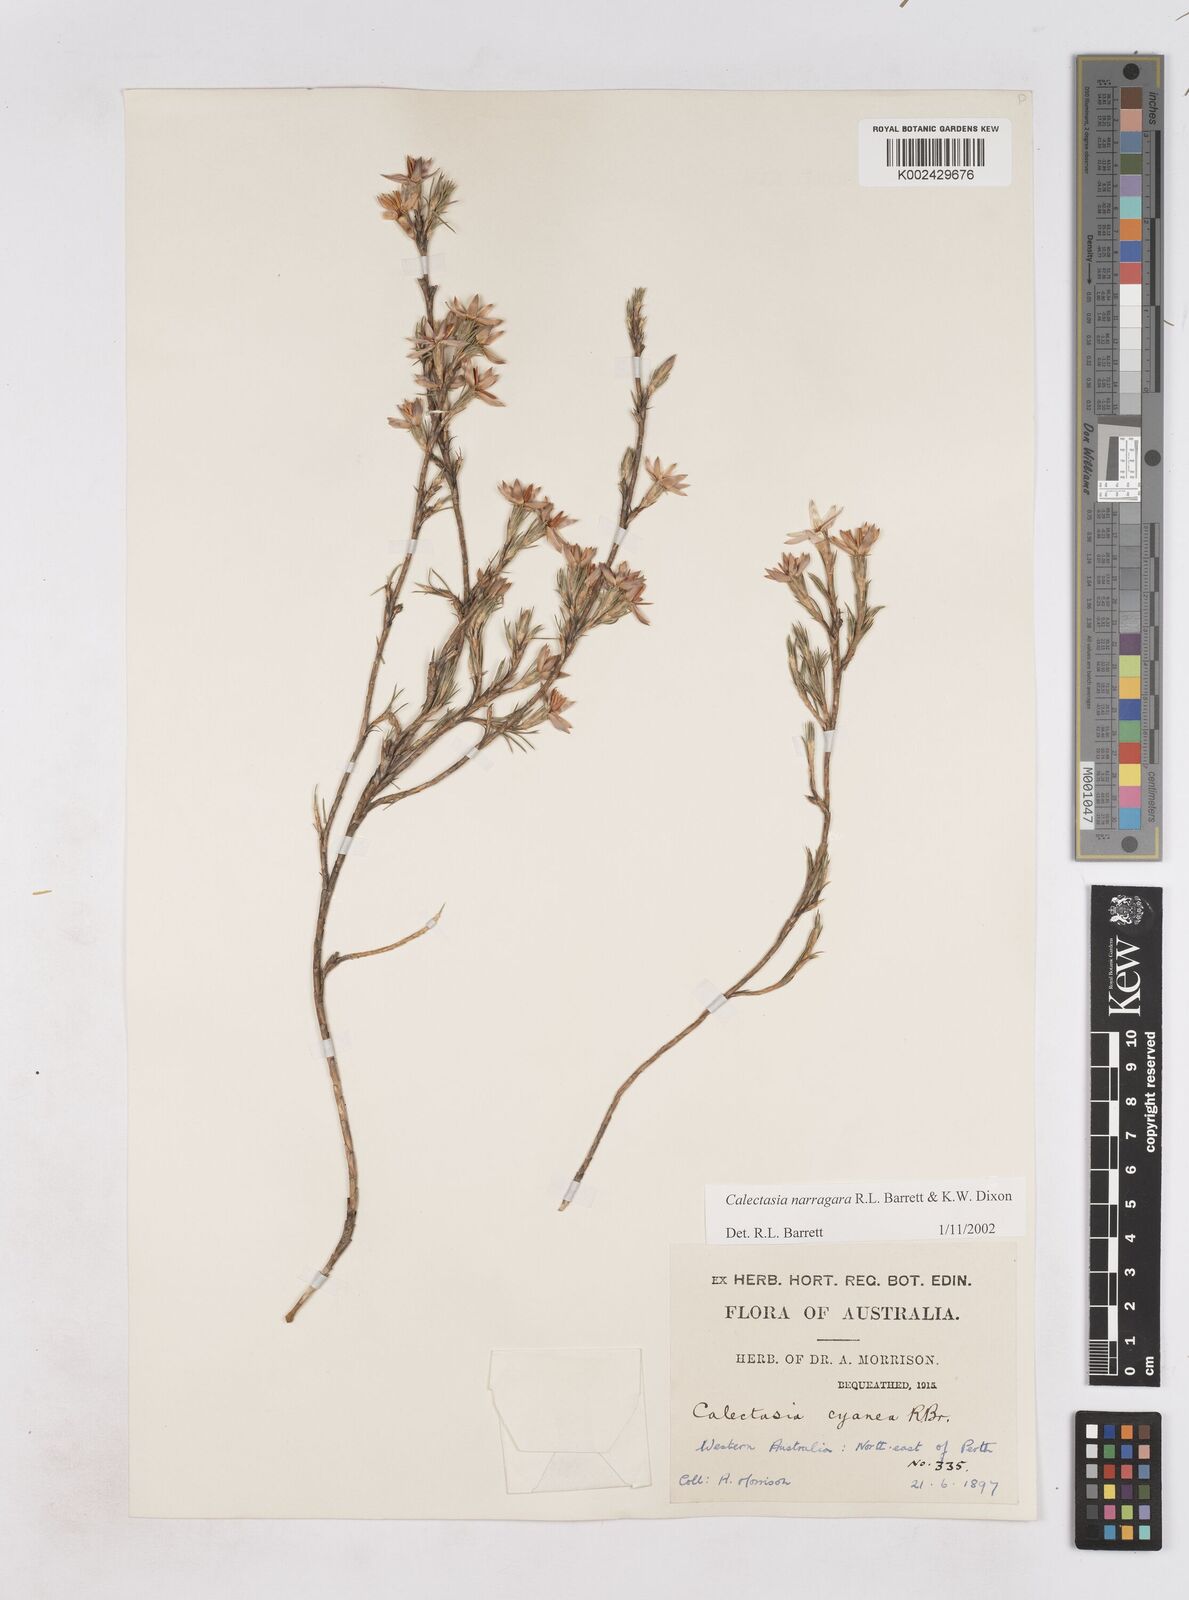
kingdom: Plantae
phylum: Tracheophyta
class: Liliopsida
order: Arecales
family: Dasypogonaceae
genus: Calectasia
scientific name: Calectasia narragara
